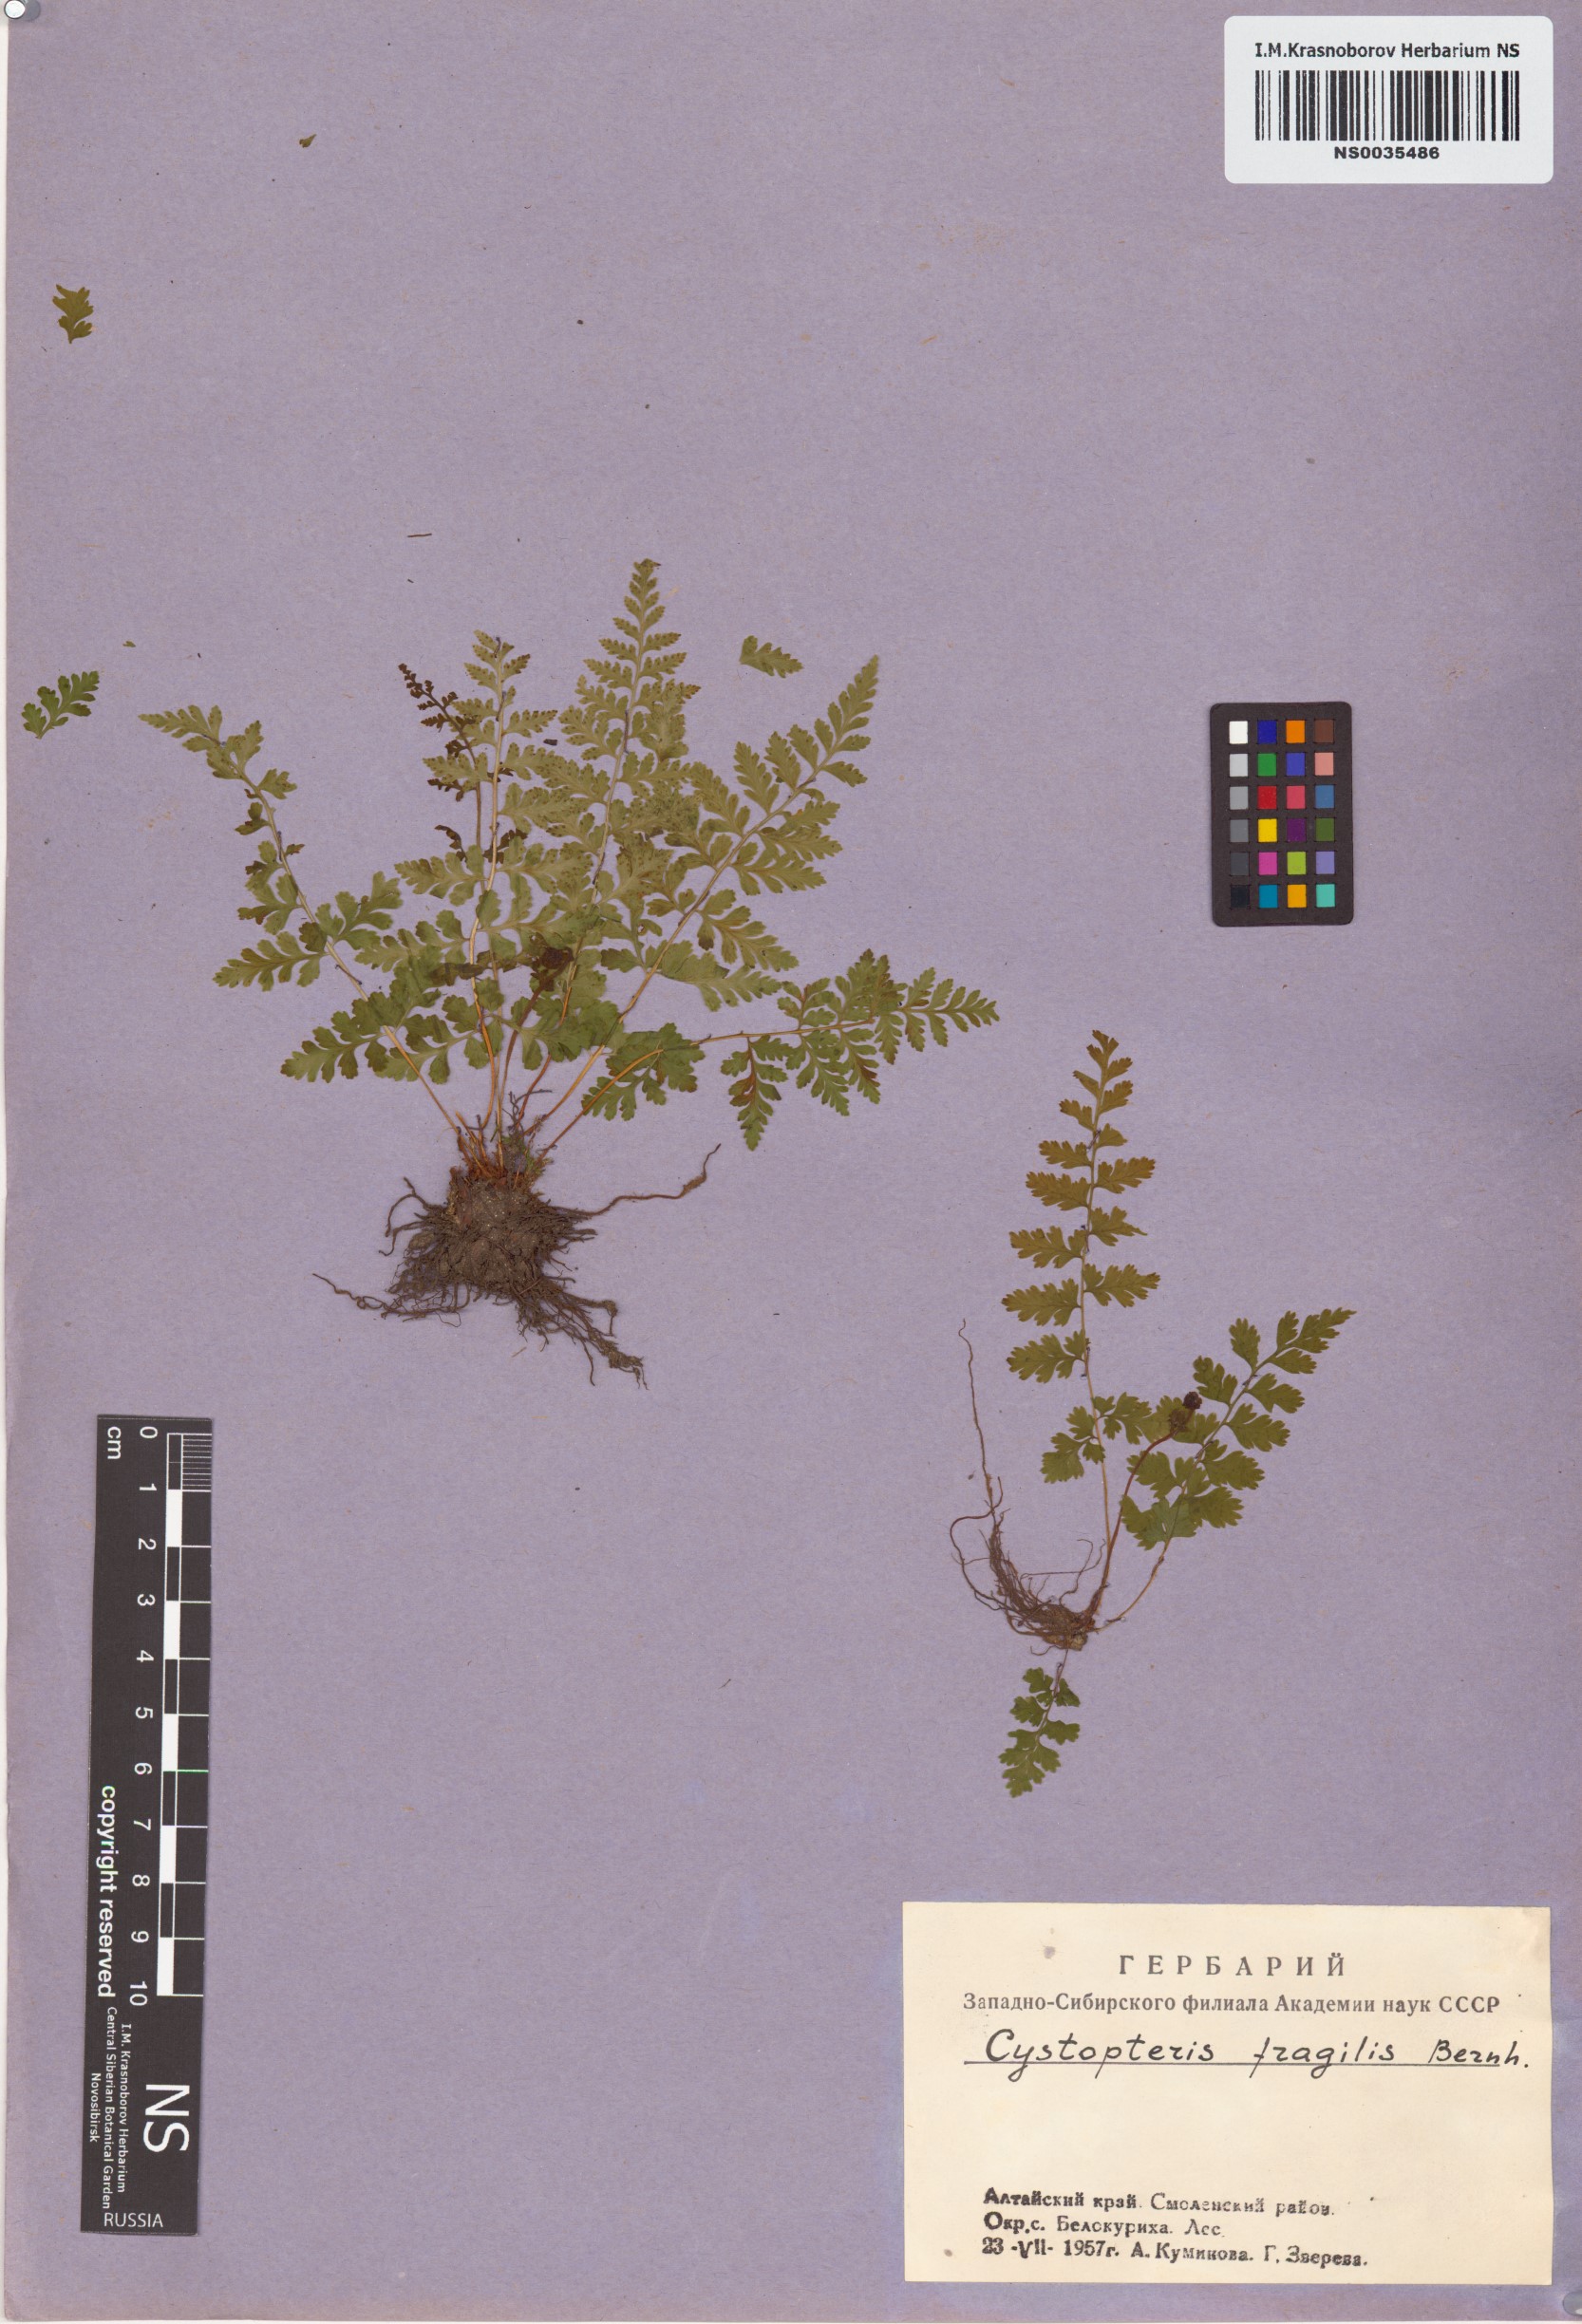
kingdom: Plantae
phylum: Tracheophyta
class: Polypodiopsida
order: Polypodiales
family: Cystopteridaceae
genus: Cystopteris
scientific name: Cystopteris fragilis
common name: Brittle bladder fern
